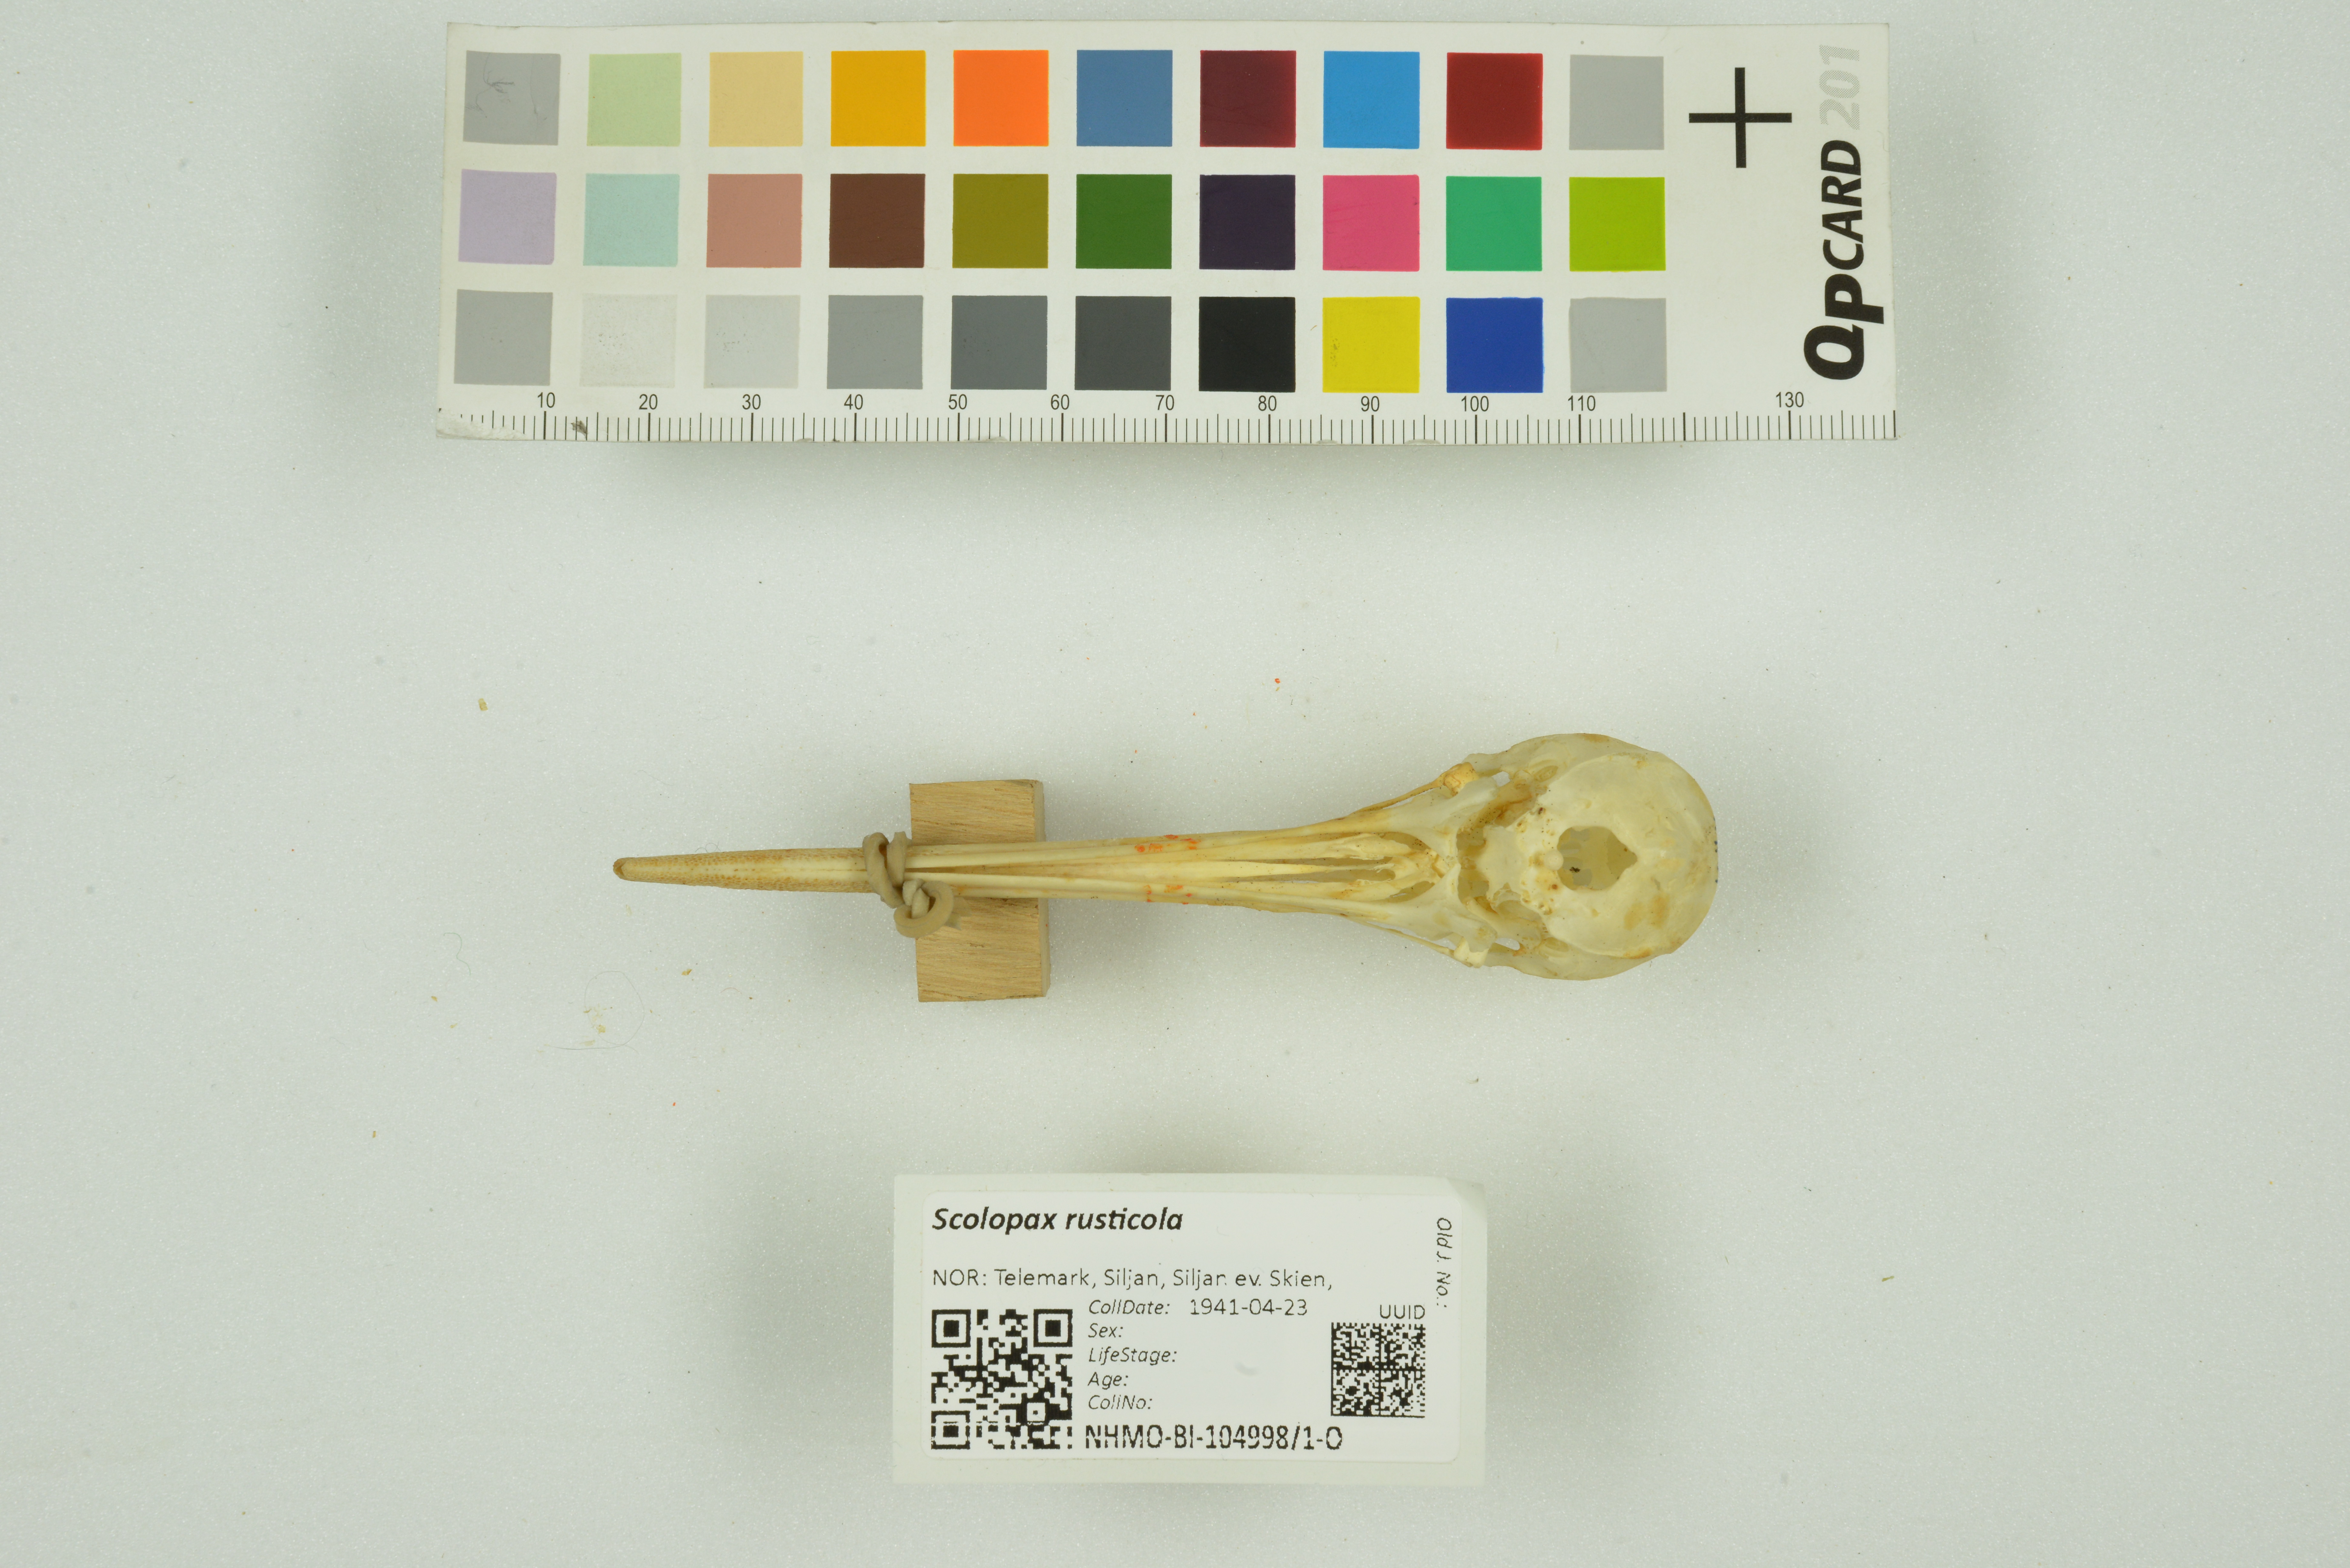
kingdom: Animalia
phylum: Chordata
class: Aves
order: Charadriiformes
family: Scolopacidae
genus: Scolopax
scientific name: Scolopax rusticola
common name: Eurasian woodcock
